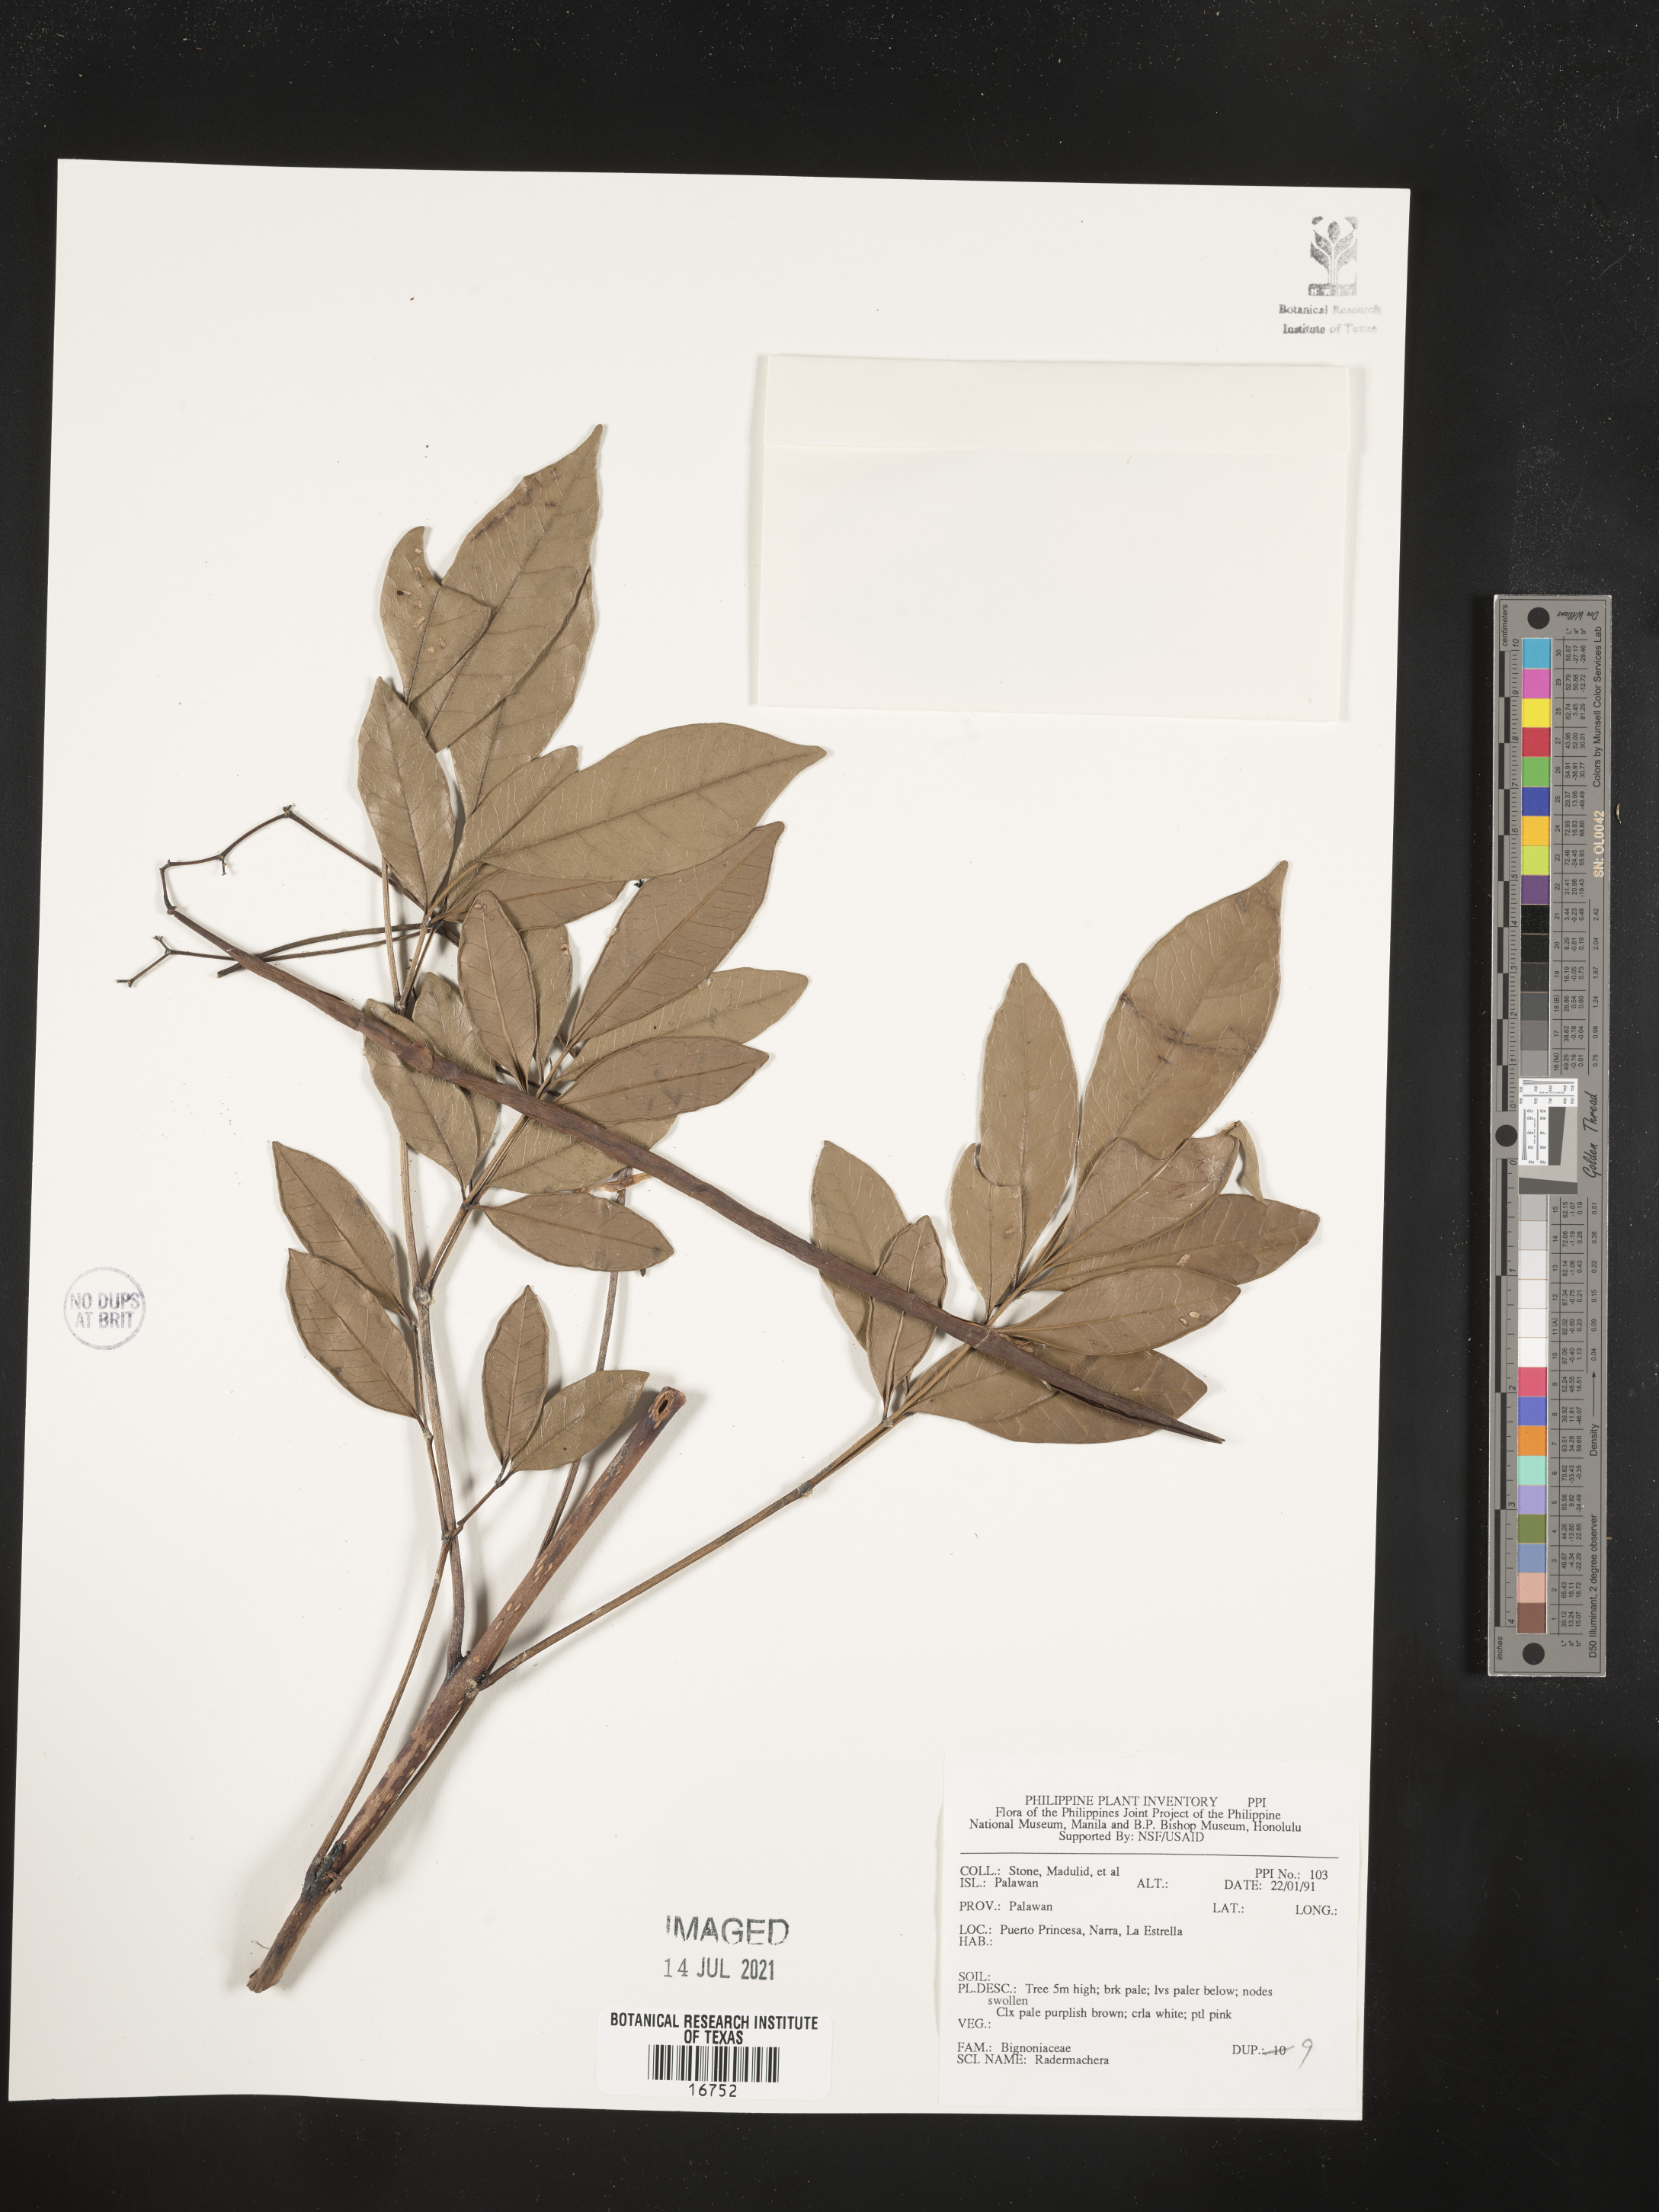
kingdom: Plantae
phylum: Tracheophyta
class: Magnoliopsida
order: Lamiales
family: Bignoniaceae
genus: Radermachera
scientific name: Radermachera
